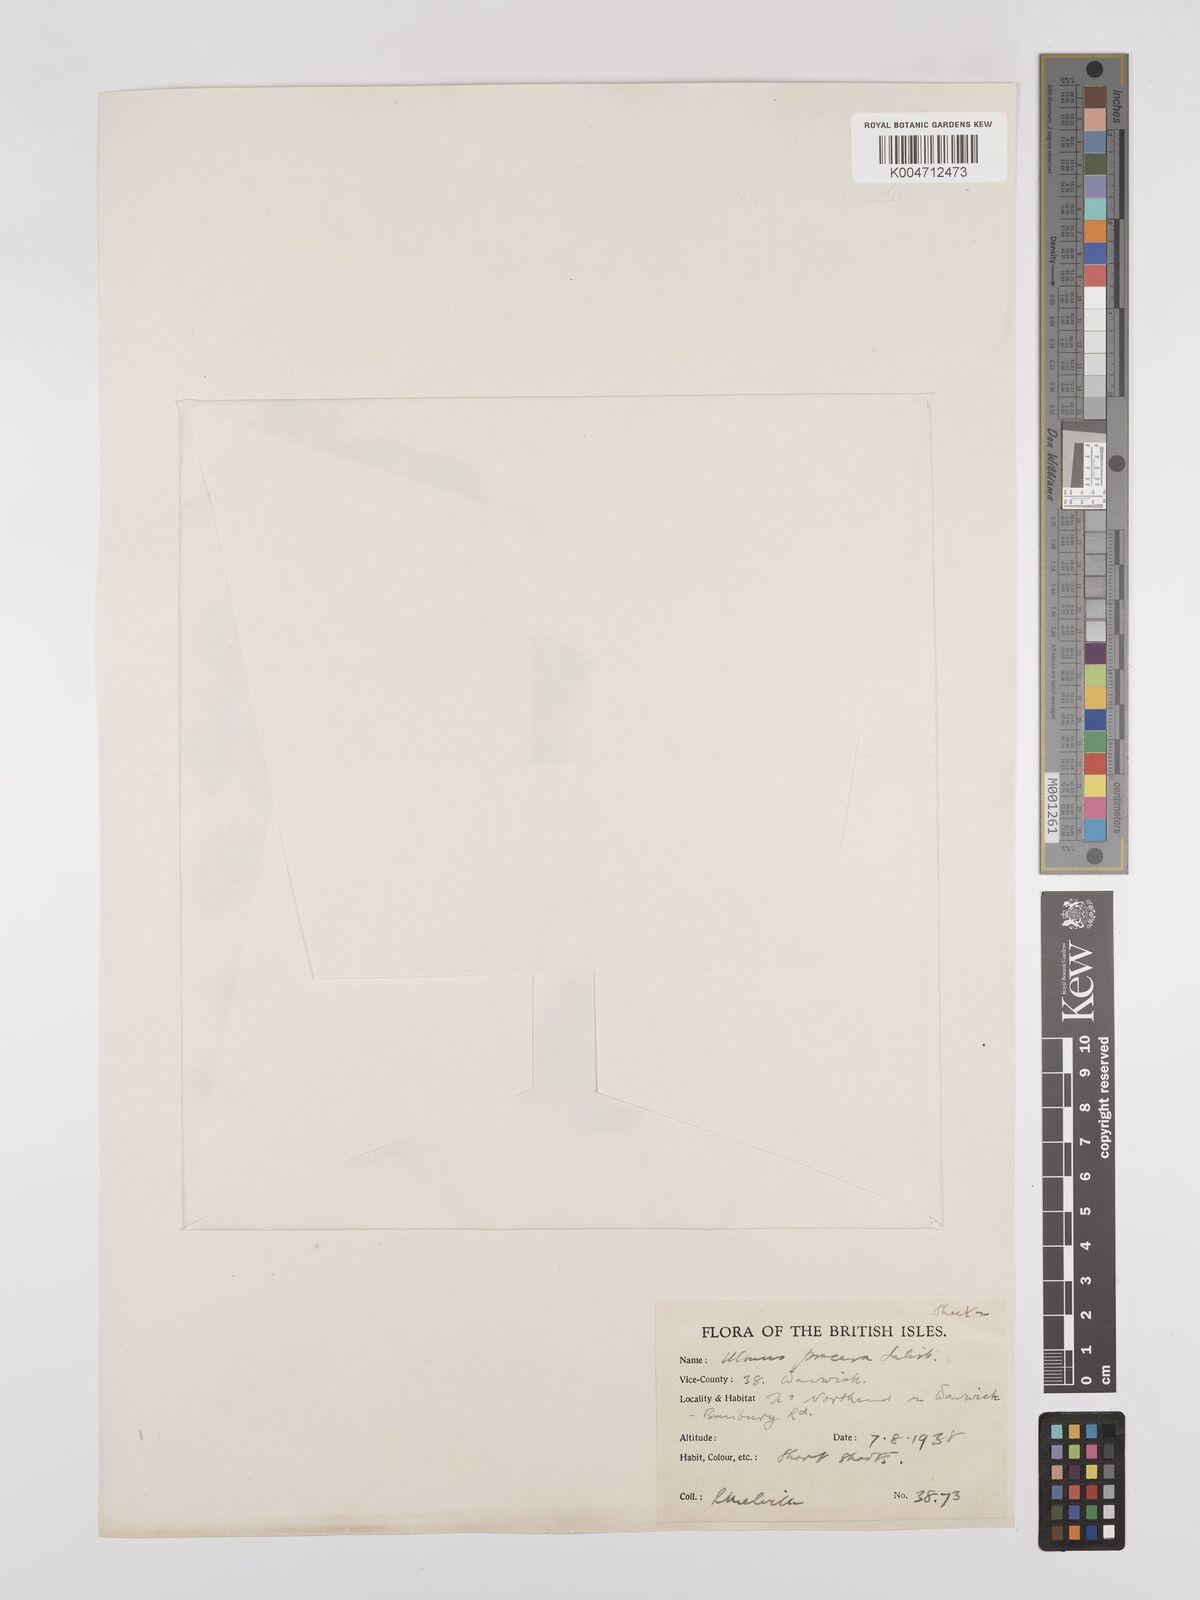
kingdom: Plantae
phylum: Tracheophyta
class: Magnoliopsida
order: Rosales
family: Ulmaceae
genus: Ulmus
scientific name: Ulmus minor
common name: Small-leaved elm
